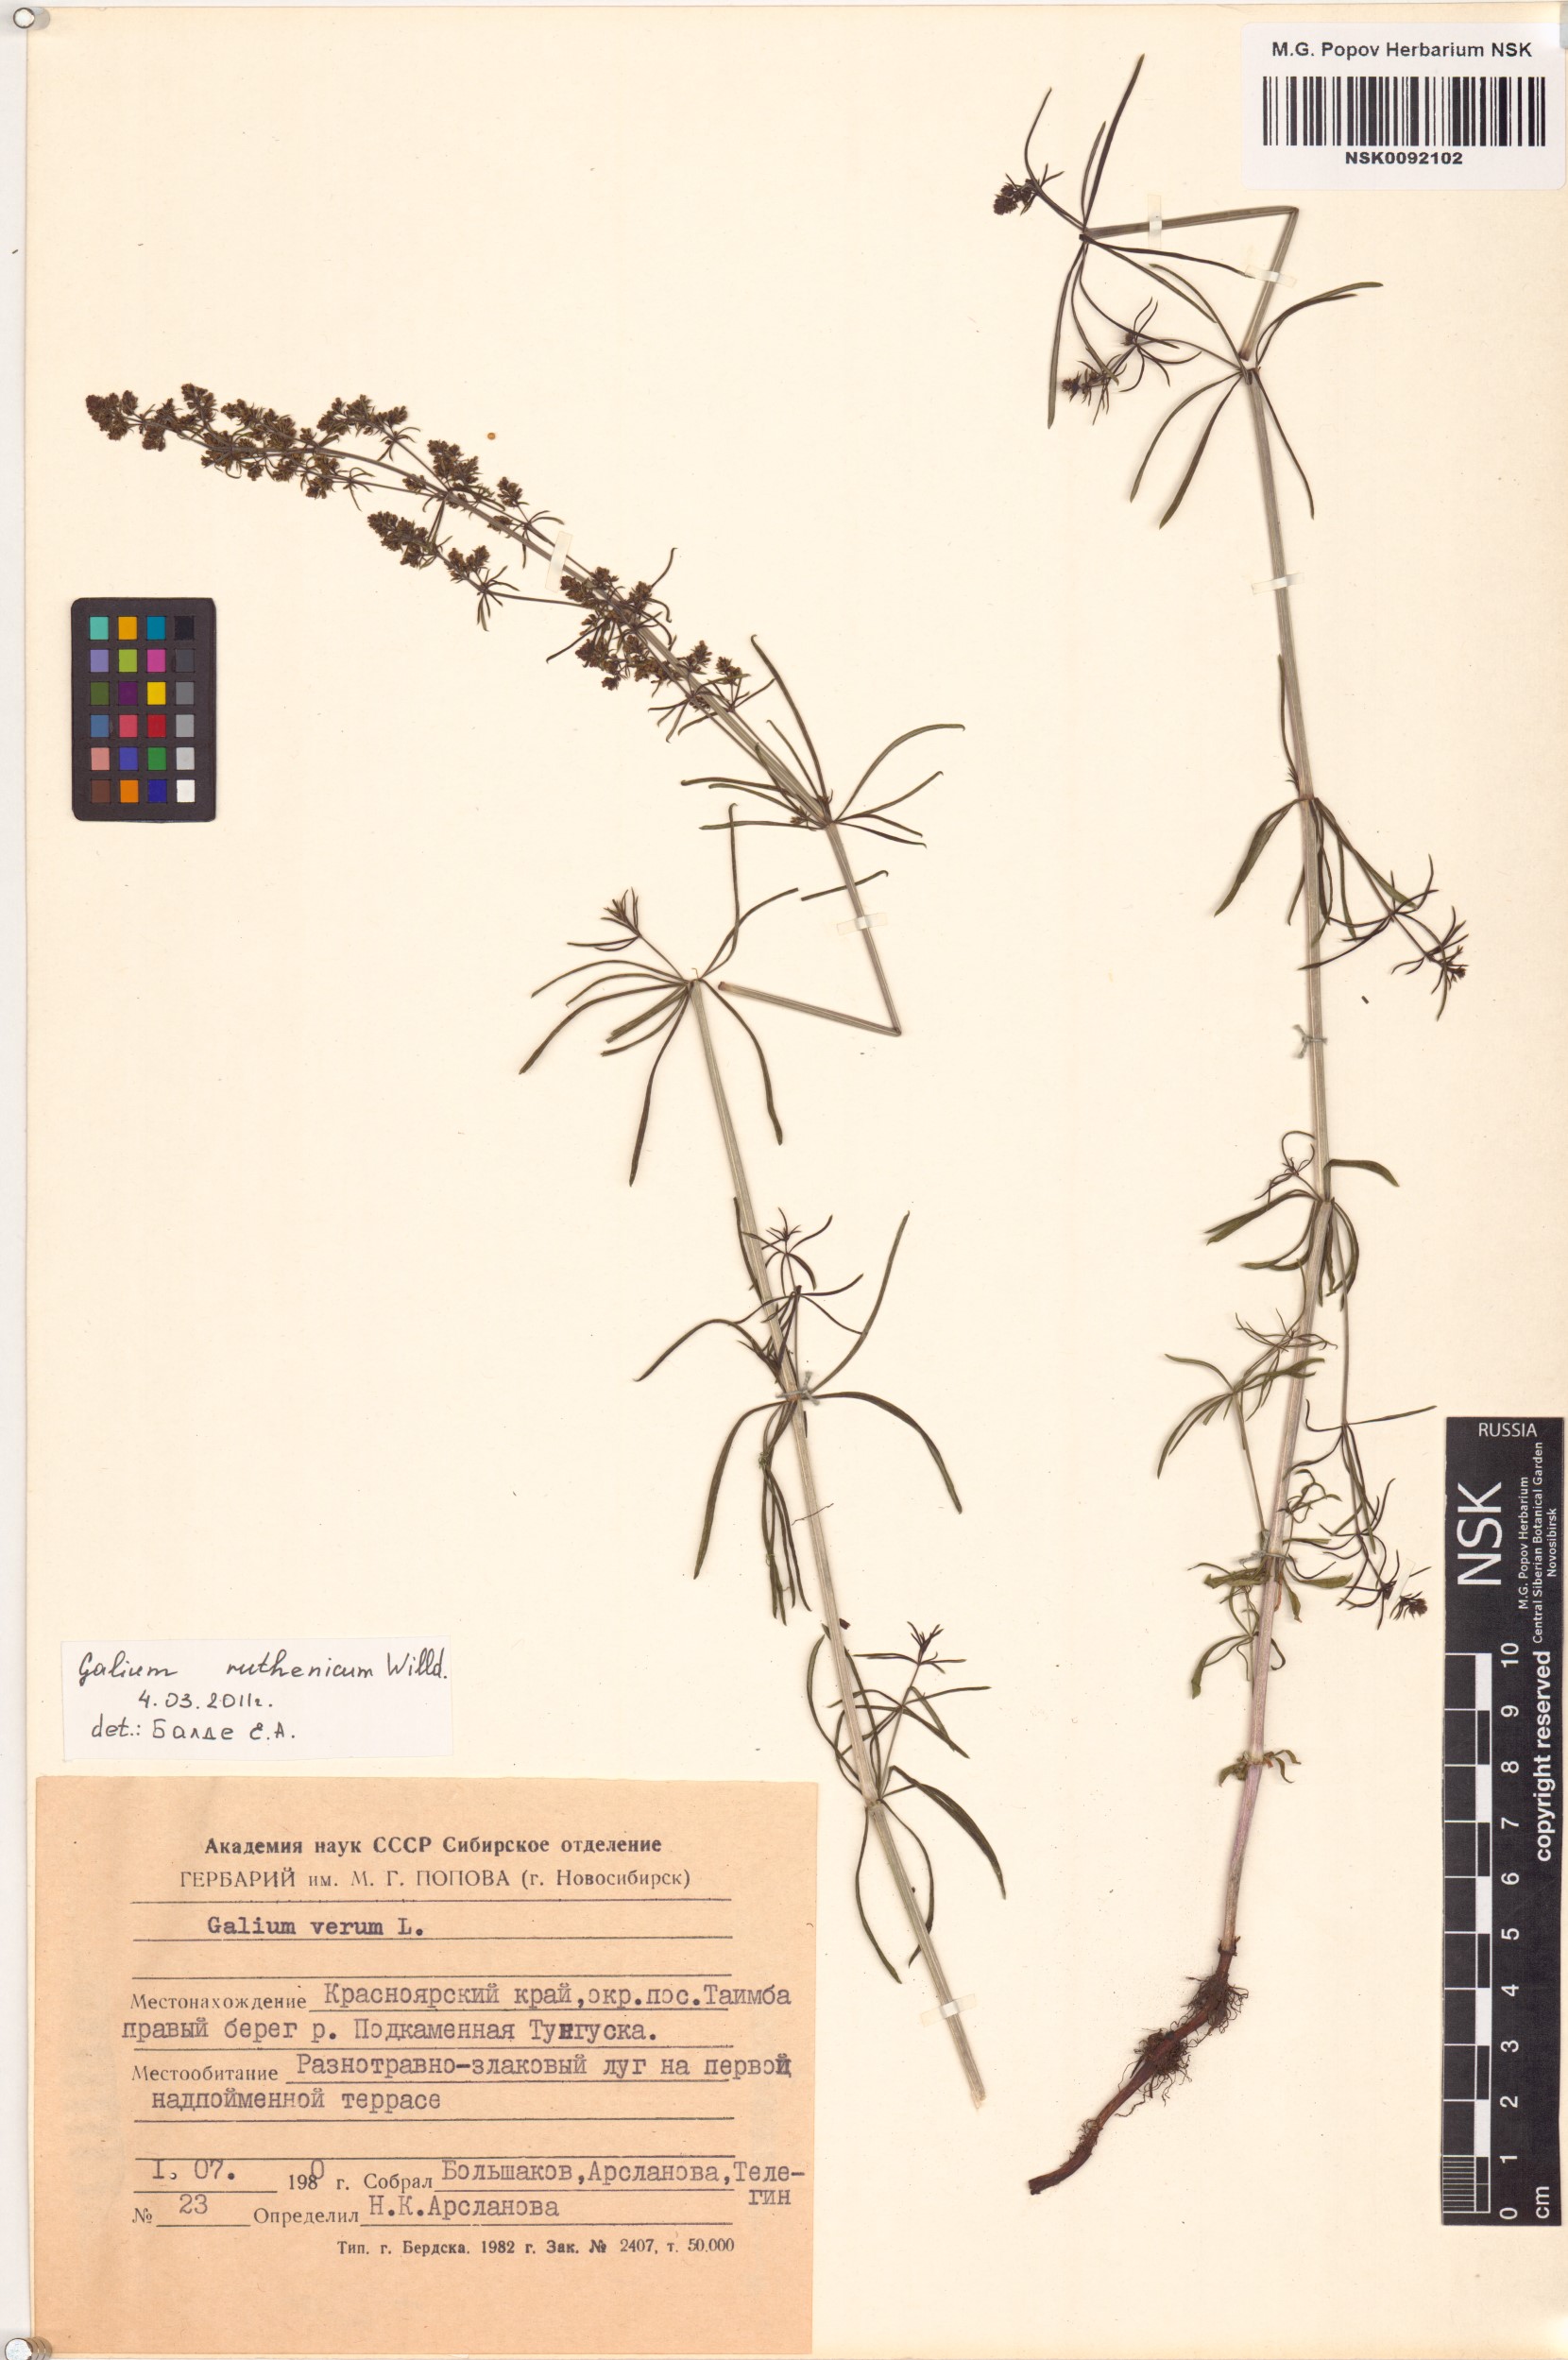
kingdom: Plantae
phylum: Tracheophyta
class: Magnoliopsida
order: Gentianales
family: Rubiaceae
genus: Galium
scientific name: Galium verum
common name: Lady's bedstraw
